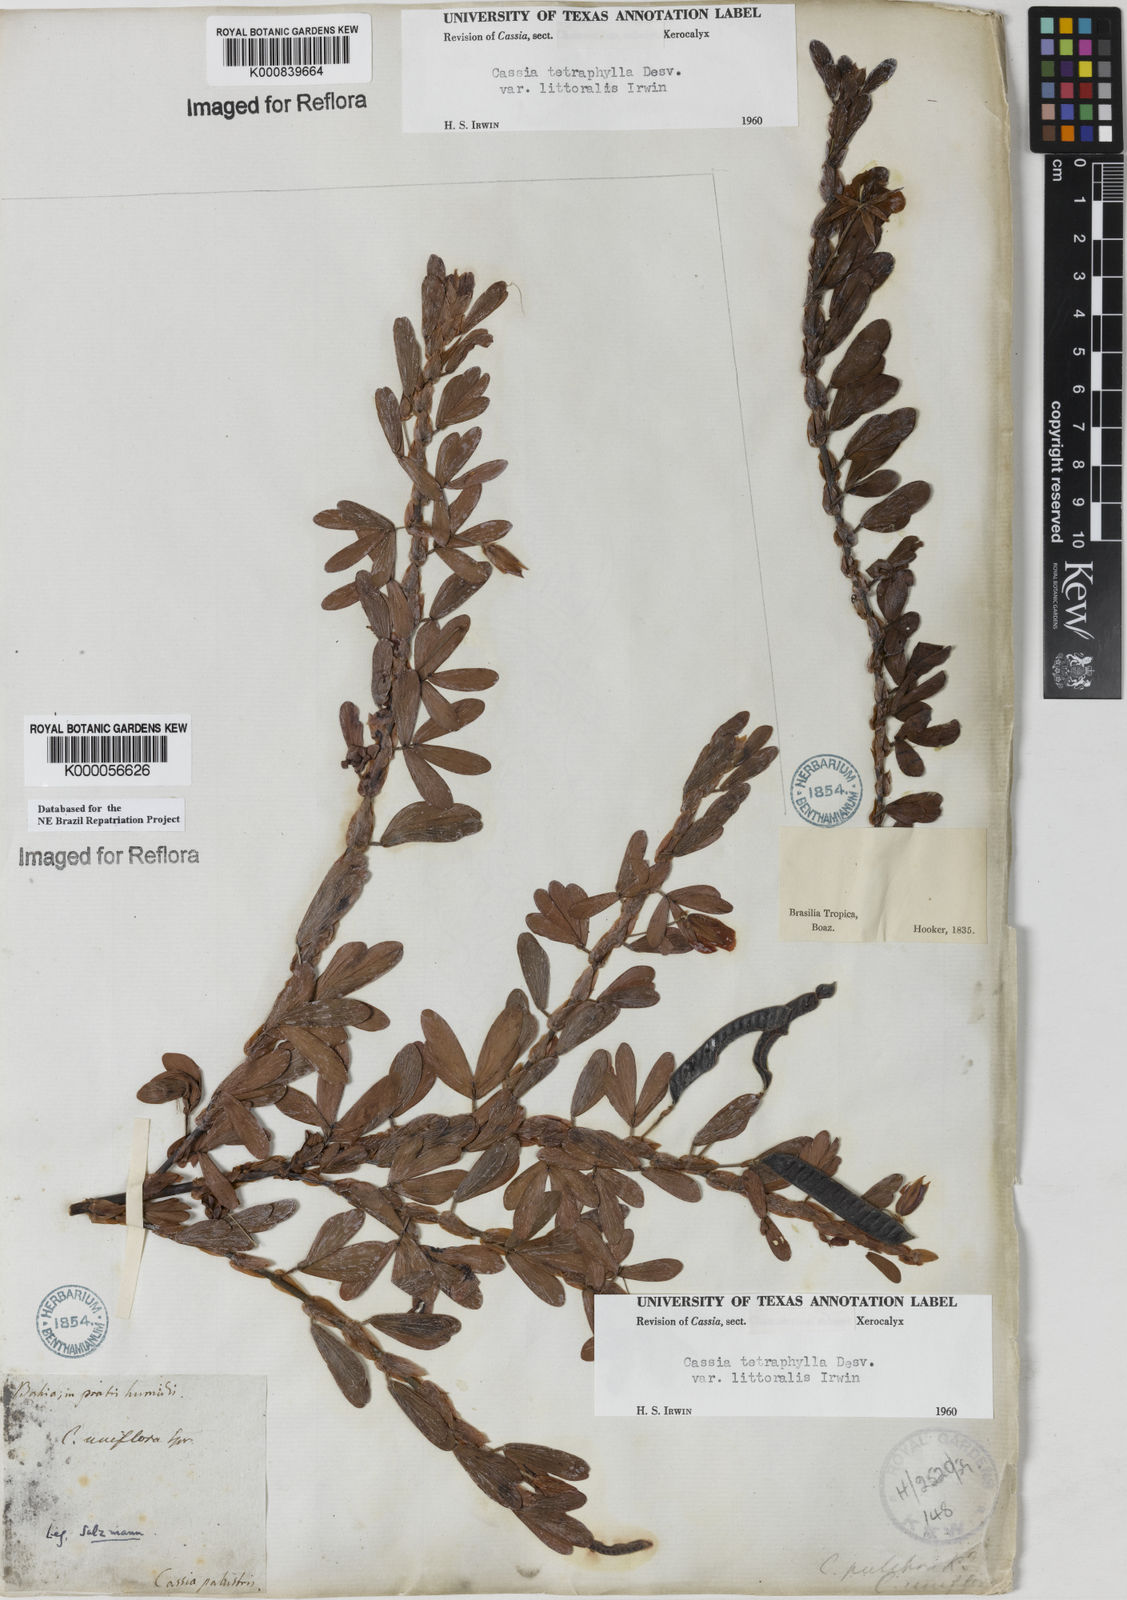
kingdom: Plantae
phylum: Tracheophyta
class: Magnoliopsida
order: Fabales
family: Fabaceae
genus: Chamaecrista
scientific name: Chamaecrista desvauxii
